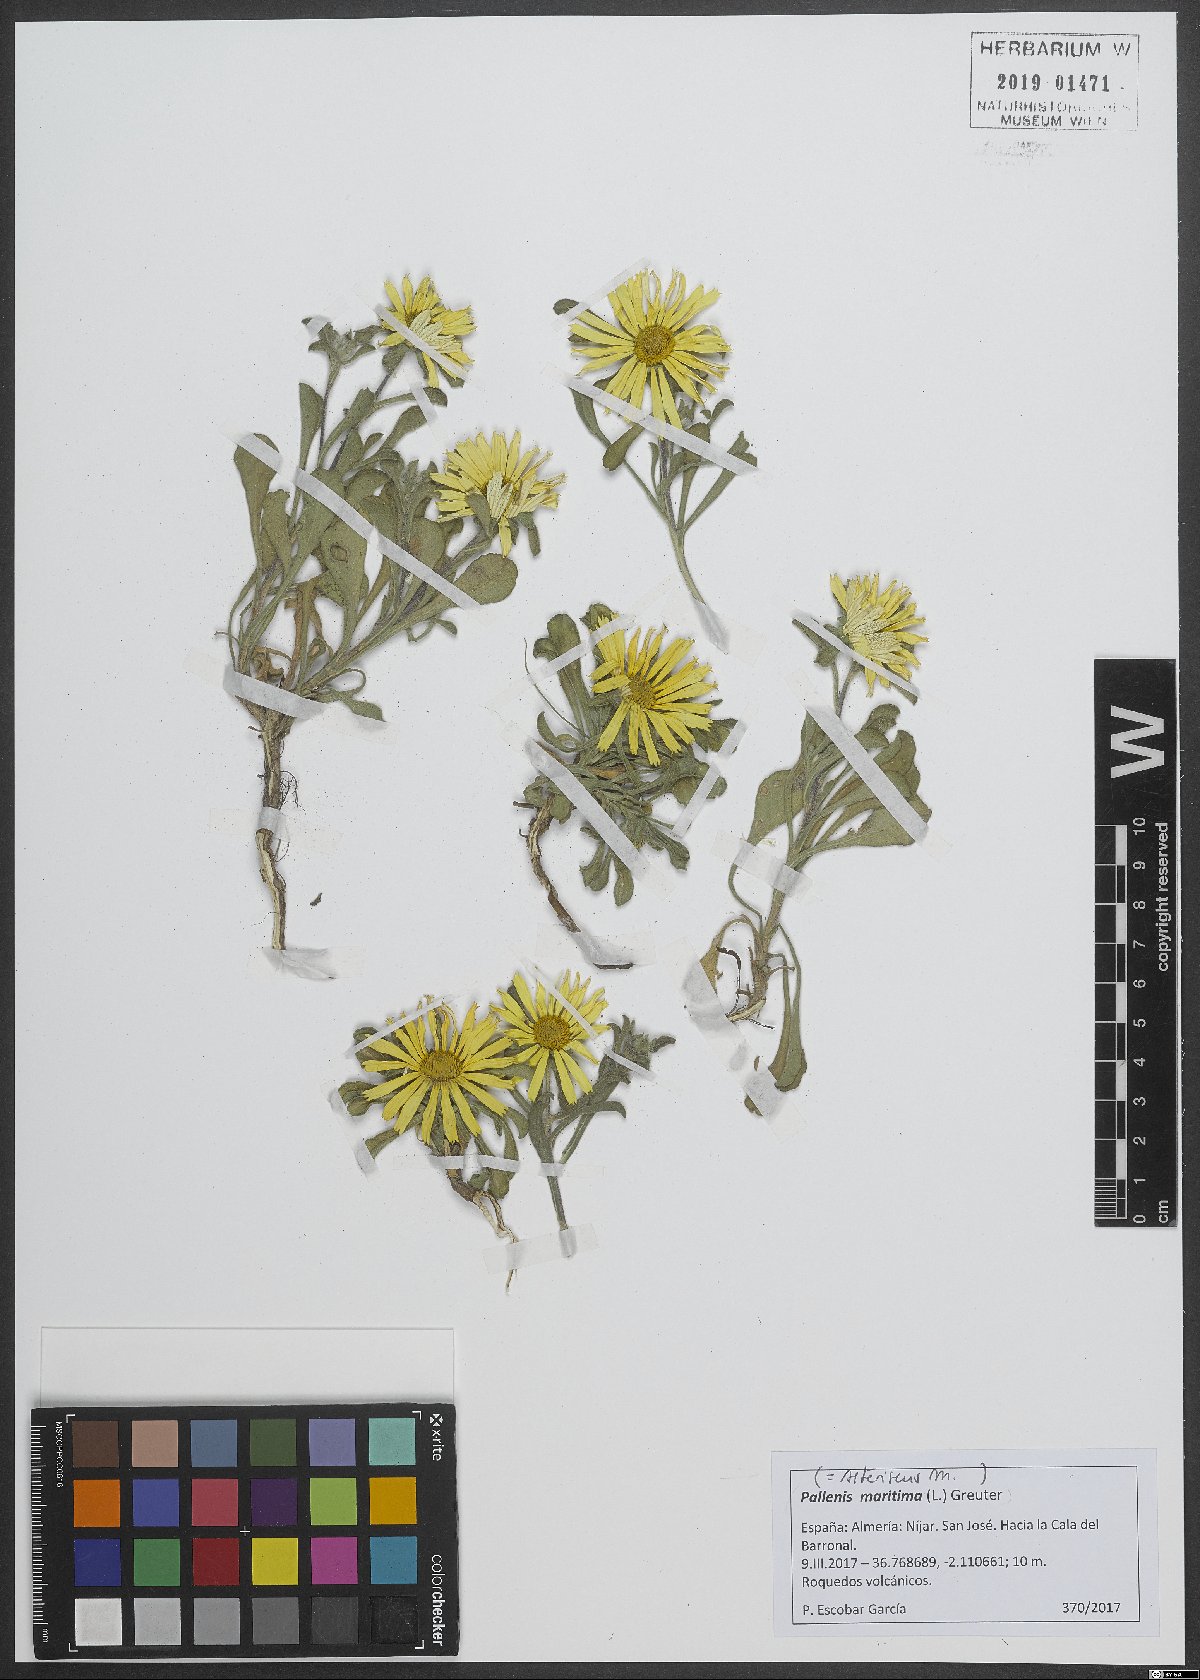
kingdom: Plantae
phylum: Tracheophyta
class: Magnoliopsida
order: Asterales
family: Asteraceae
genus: Pallenis
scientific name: Pallenis maritima
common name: Golden coin daisy
